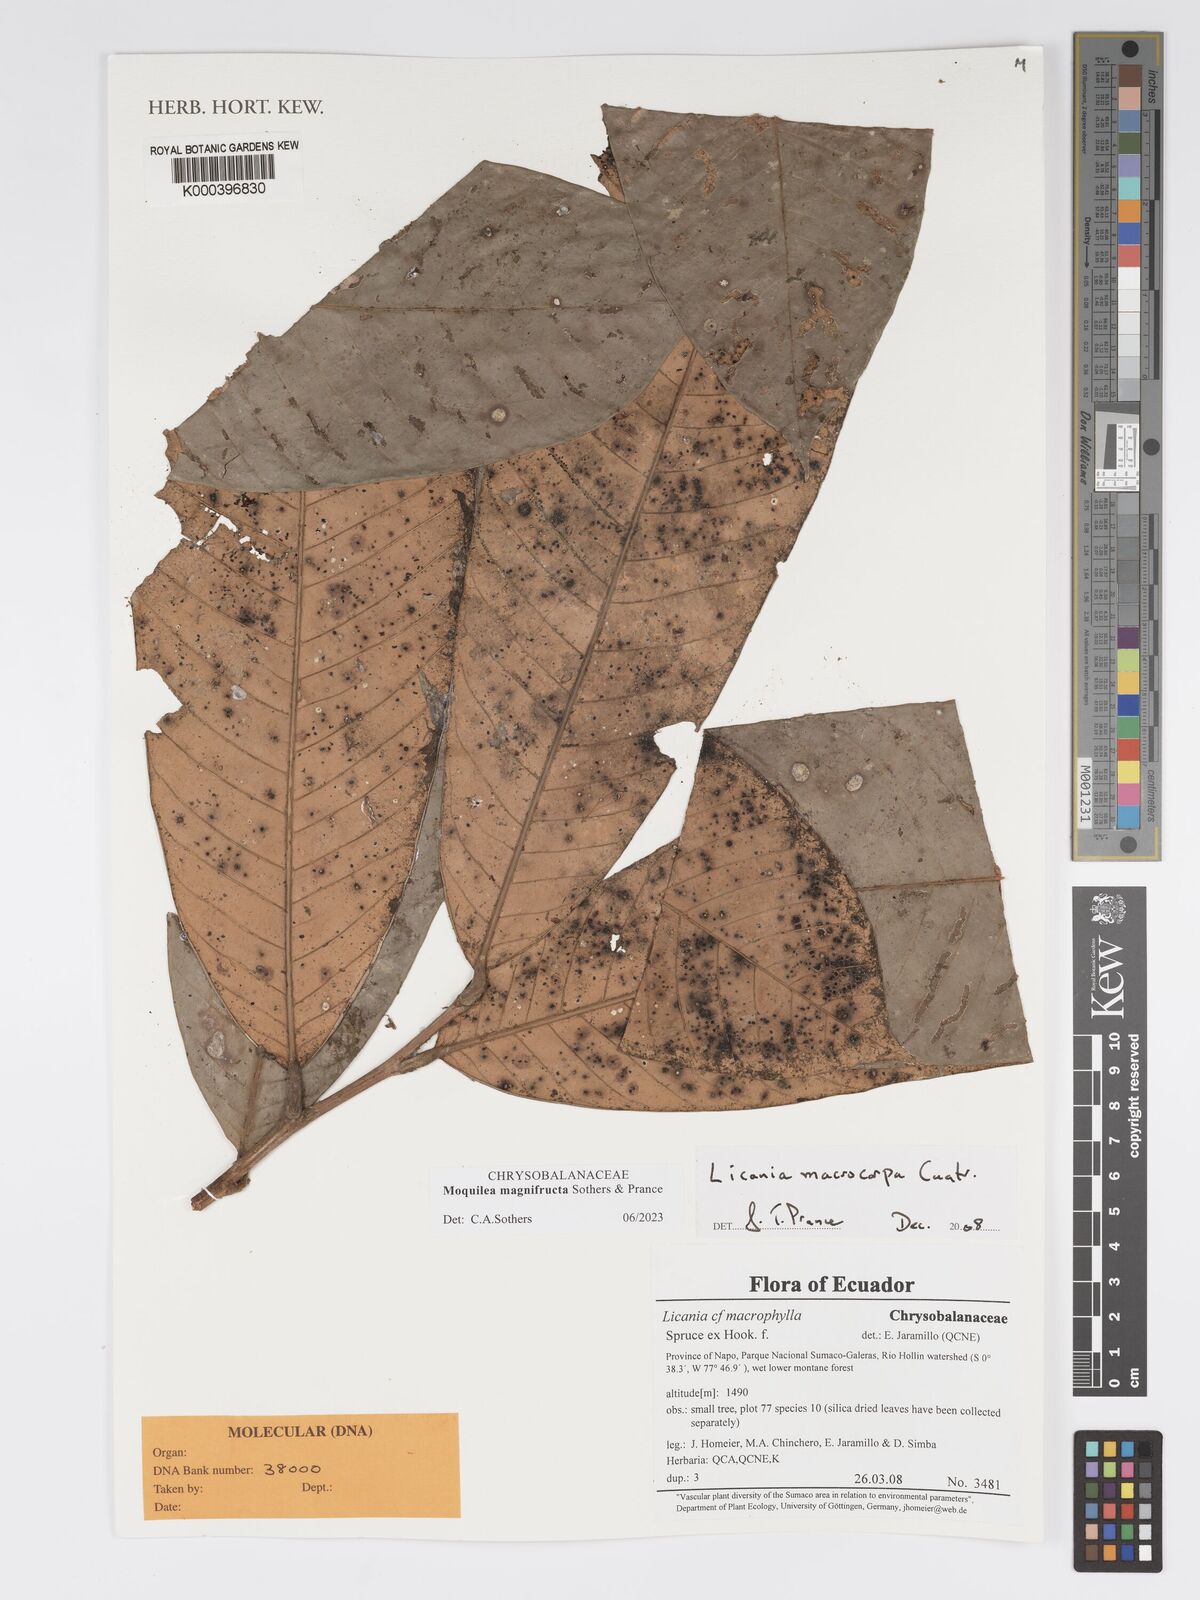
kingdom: Plantae
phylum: Tracheophyta
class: Magnoliopsida
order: Malpighiales
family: Chrysobalanaceae
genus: Moquilea
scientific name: Moquilea magnifructa
